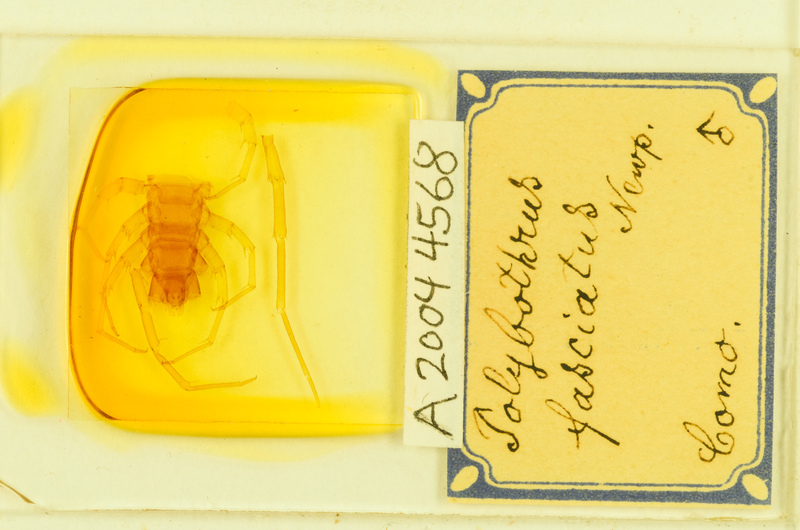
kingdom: Animalia
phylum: Arthropoda
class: Chilopoda
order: Lithobiomorpha
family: Lithobiidae
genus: Polybothrus
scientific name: Polybothrus fasciatus
